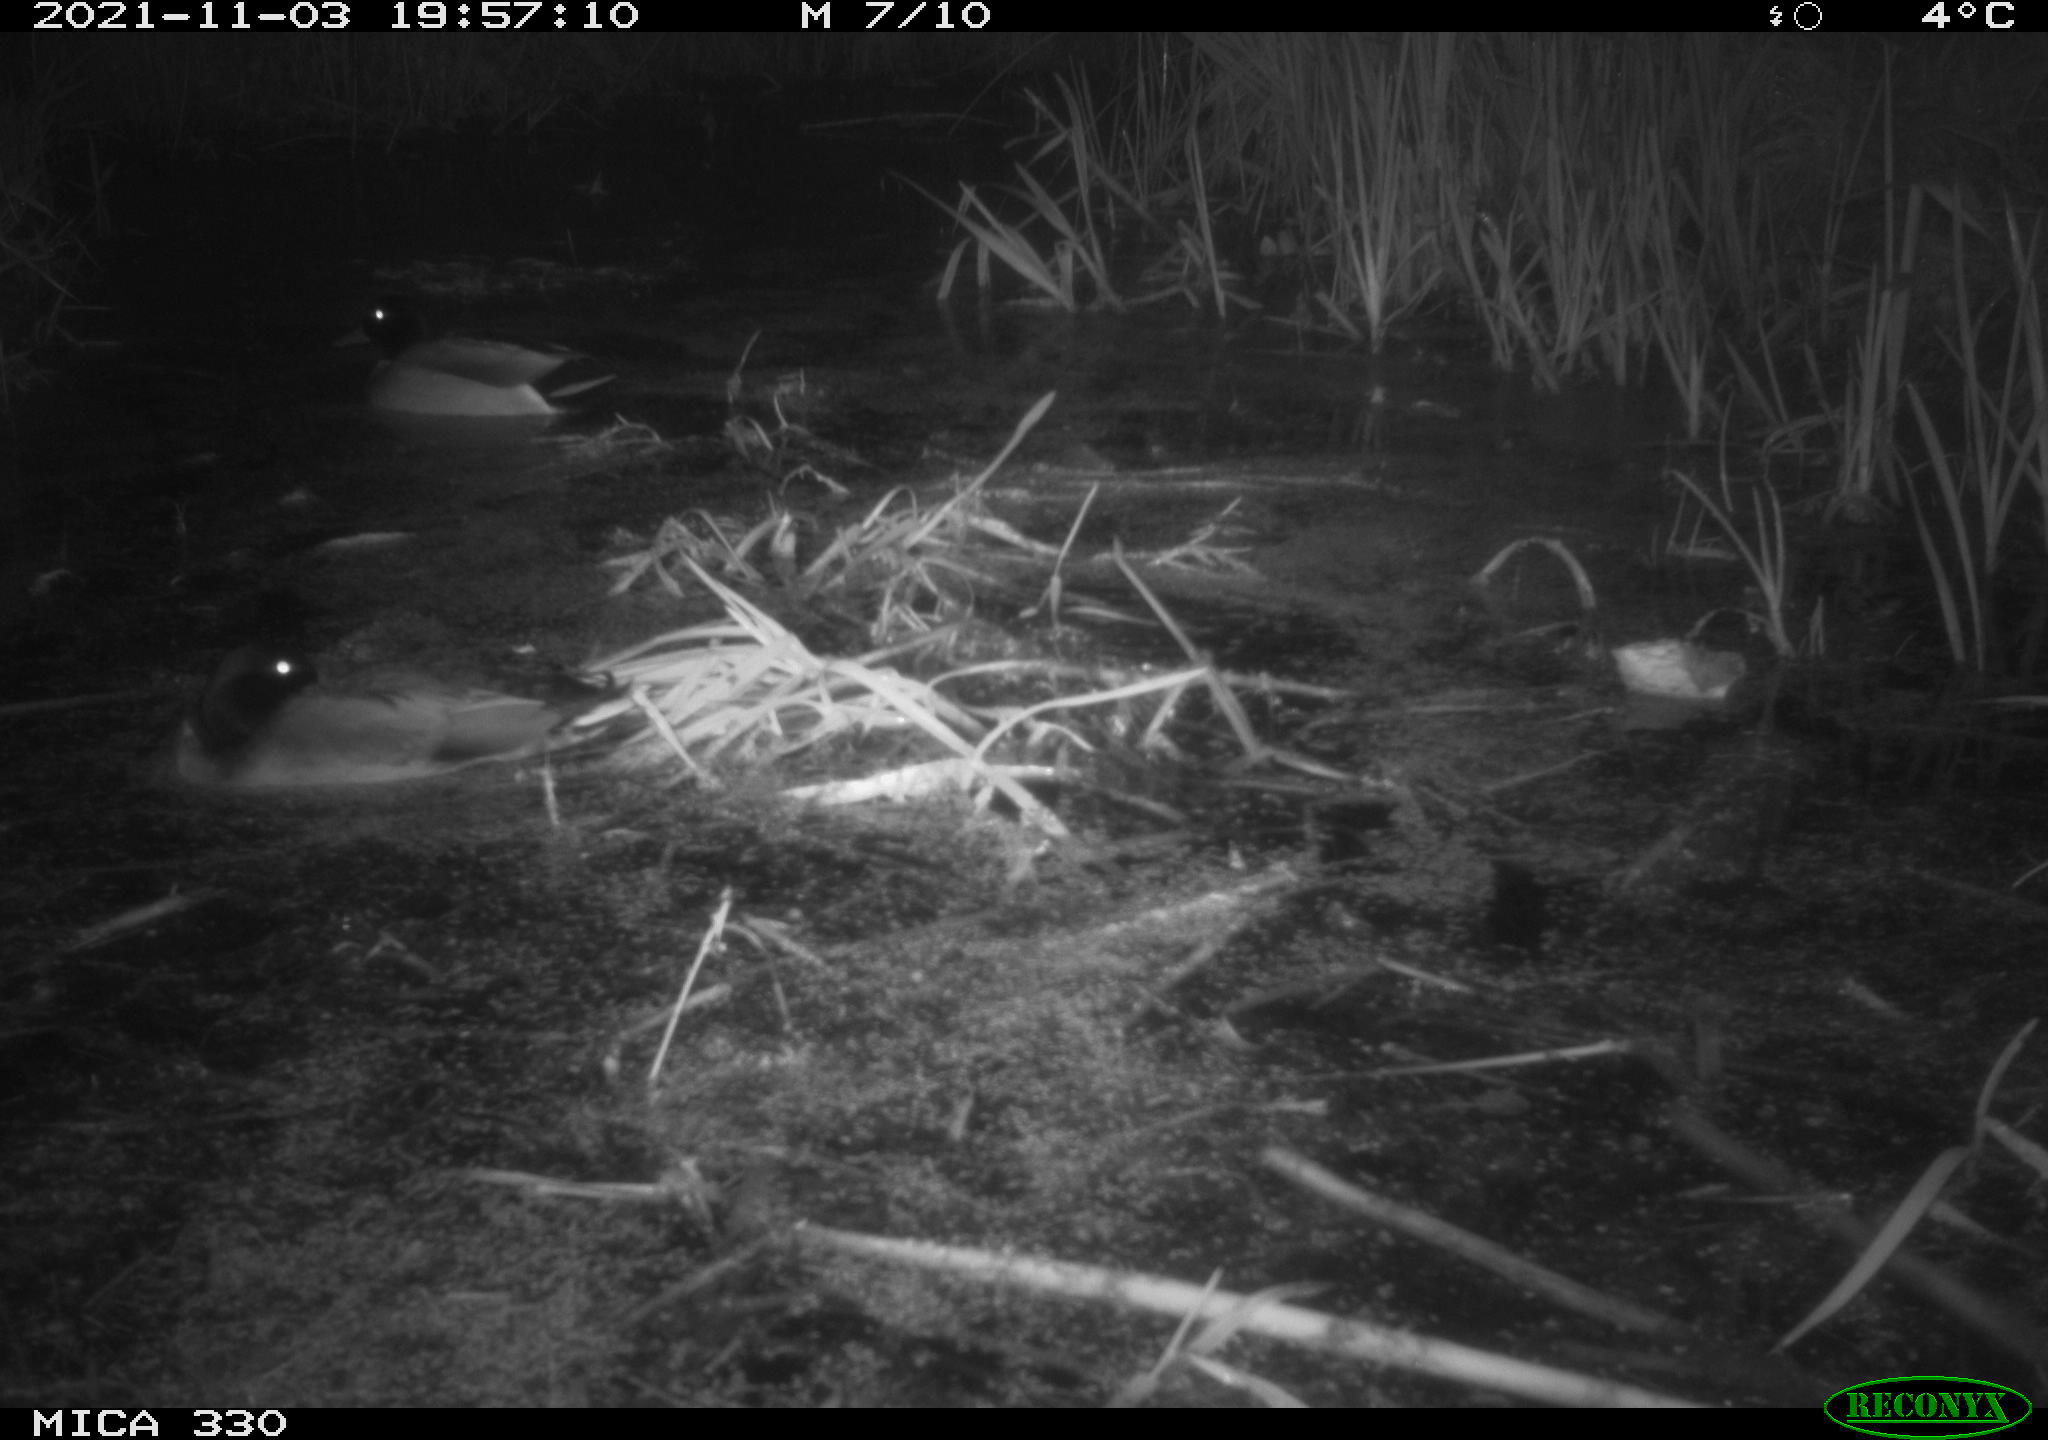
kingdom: Animalia
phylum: Chordata
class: Aves
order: Anseriformes
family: Anatidae
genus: Anas
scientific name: Anas platyrhynchos
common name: Mallard
